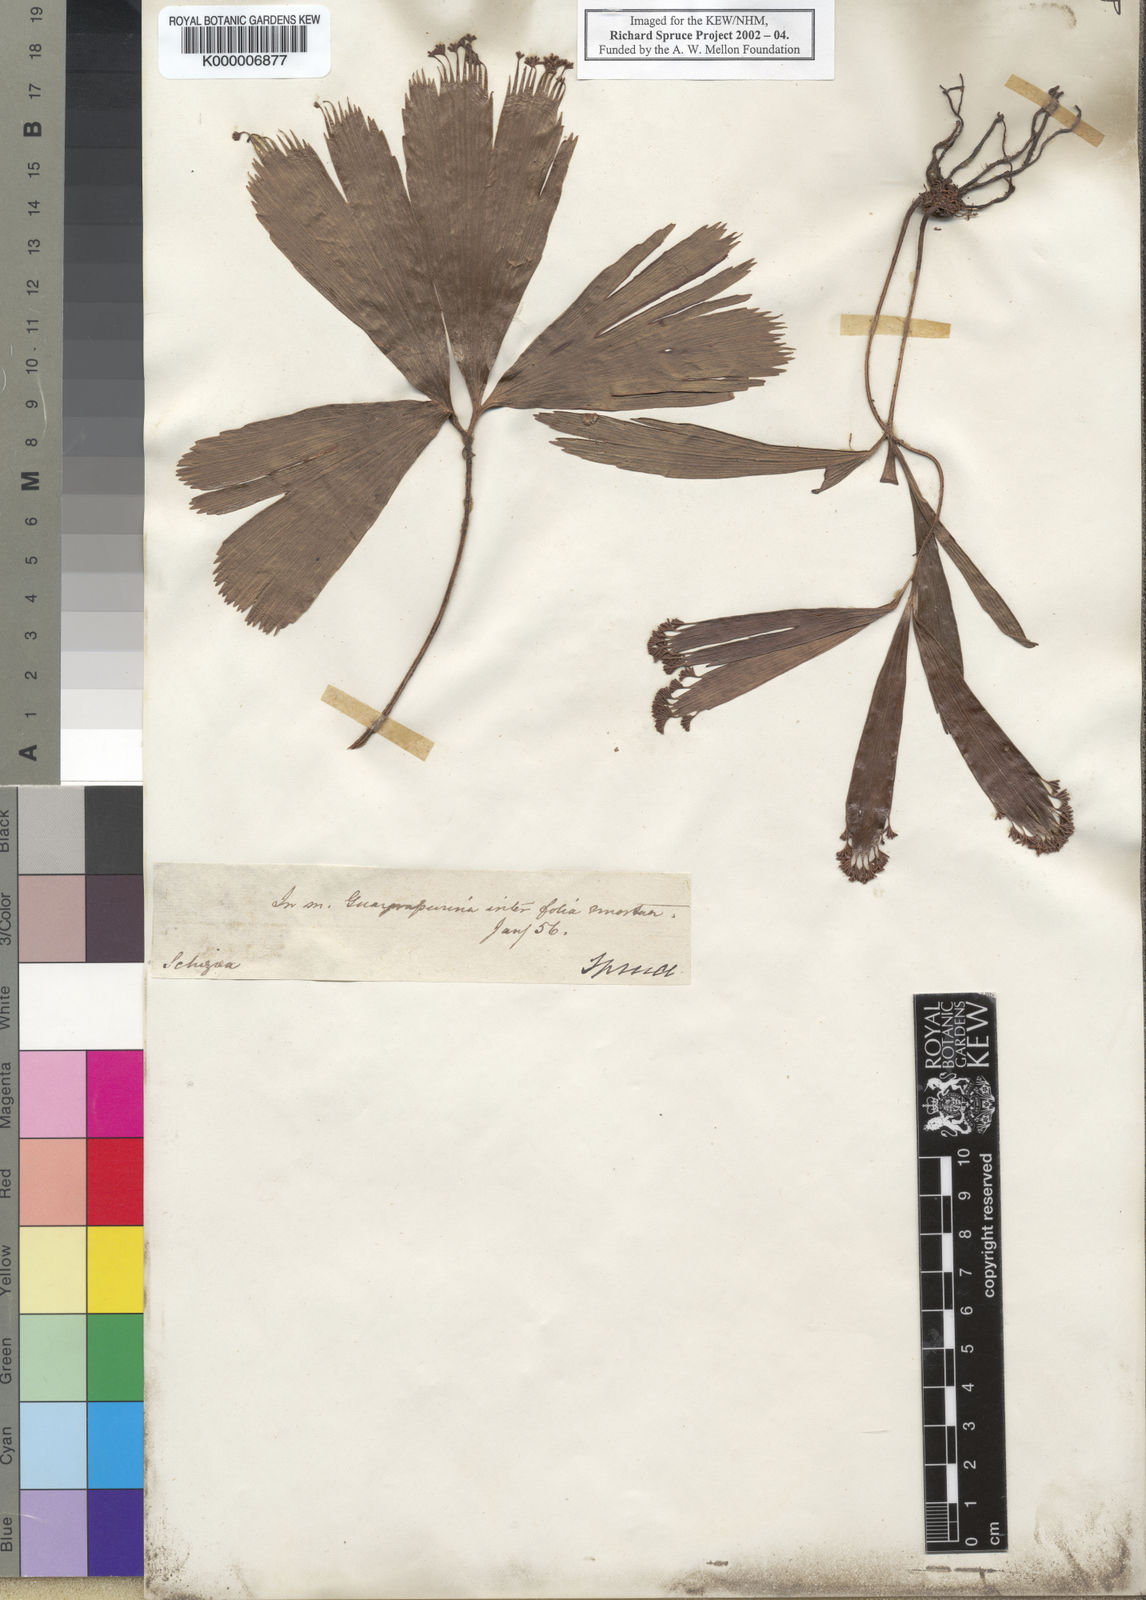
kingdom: Plantae
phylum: Tracheophyta
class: Polypodiopsida
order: Schizaeales
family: Schizaeaceae
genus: Schizaea
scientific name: Schizaea elegans
